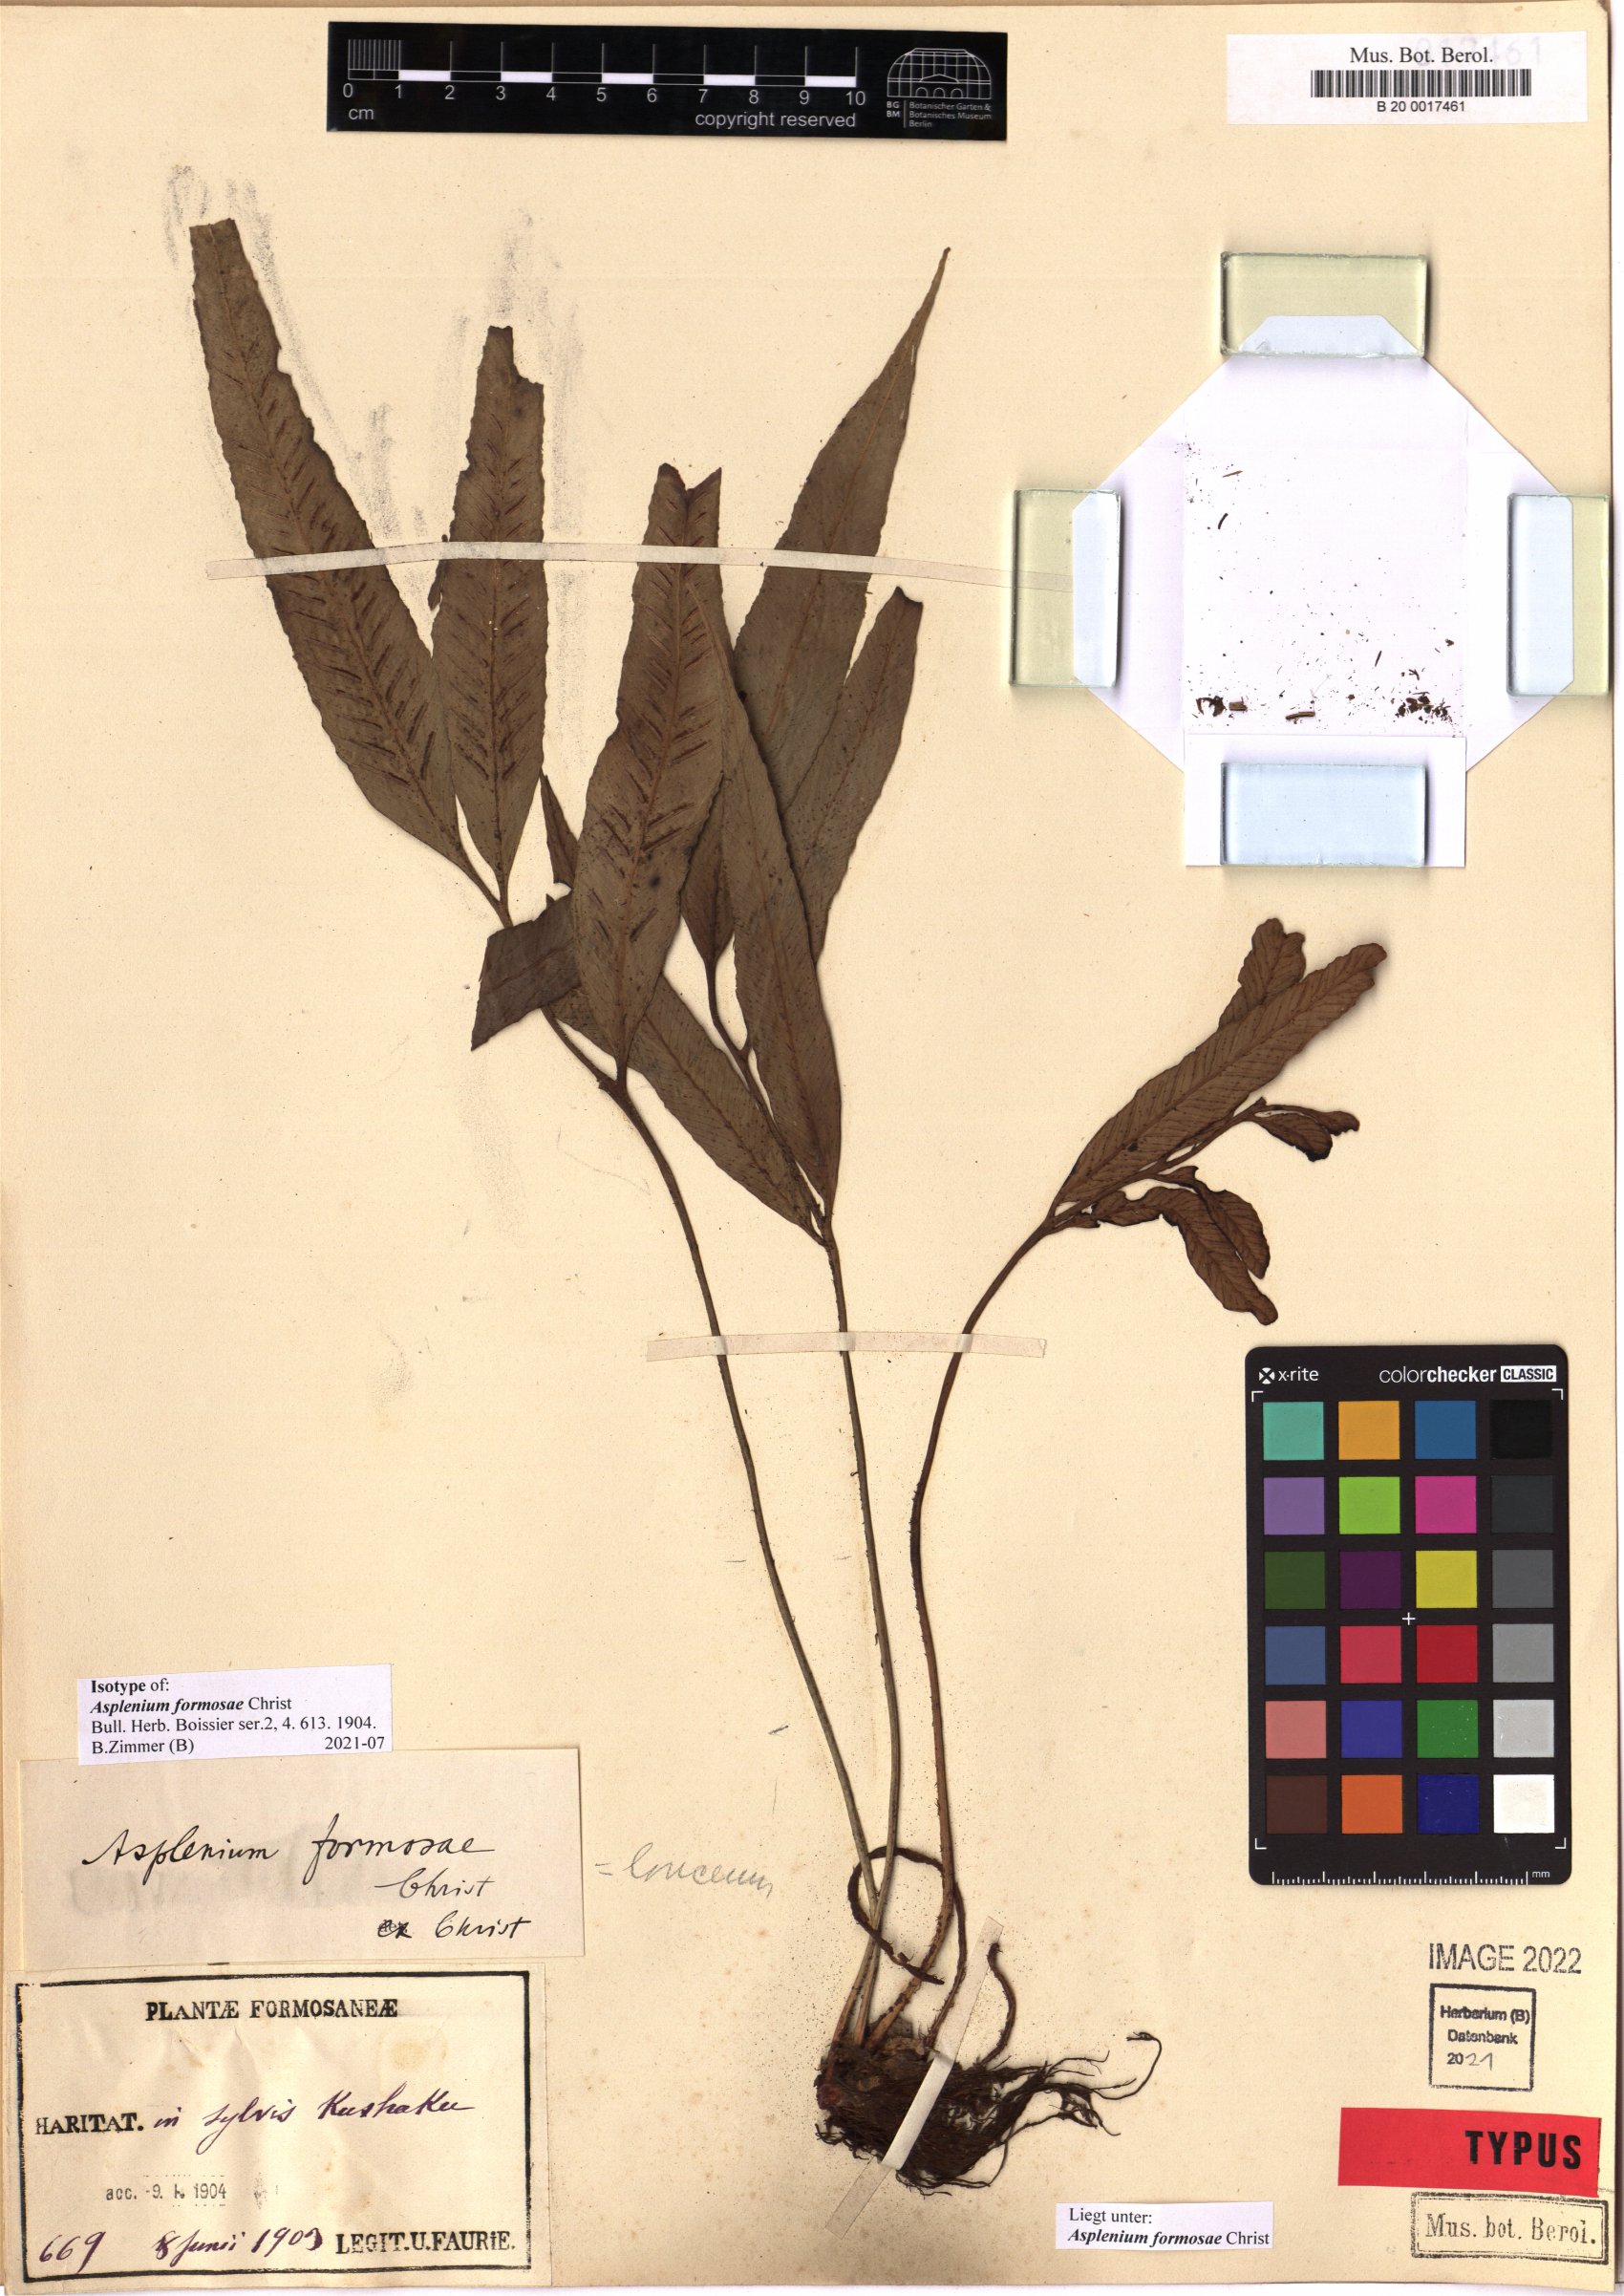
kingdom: Plantae
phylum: Tracheophyta
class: Polypodiopsida
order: Polypodiales
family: Aspleniaceae
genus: Asplenium
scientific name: Asplenium formosae
